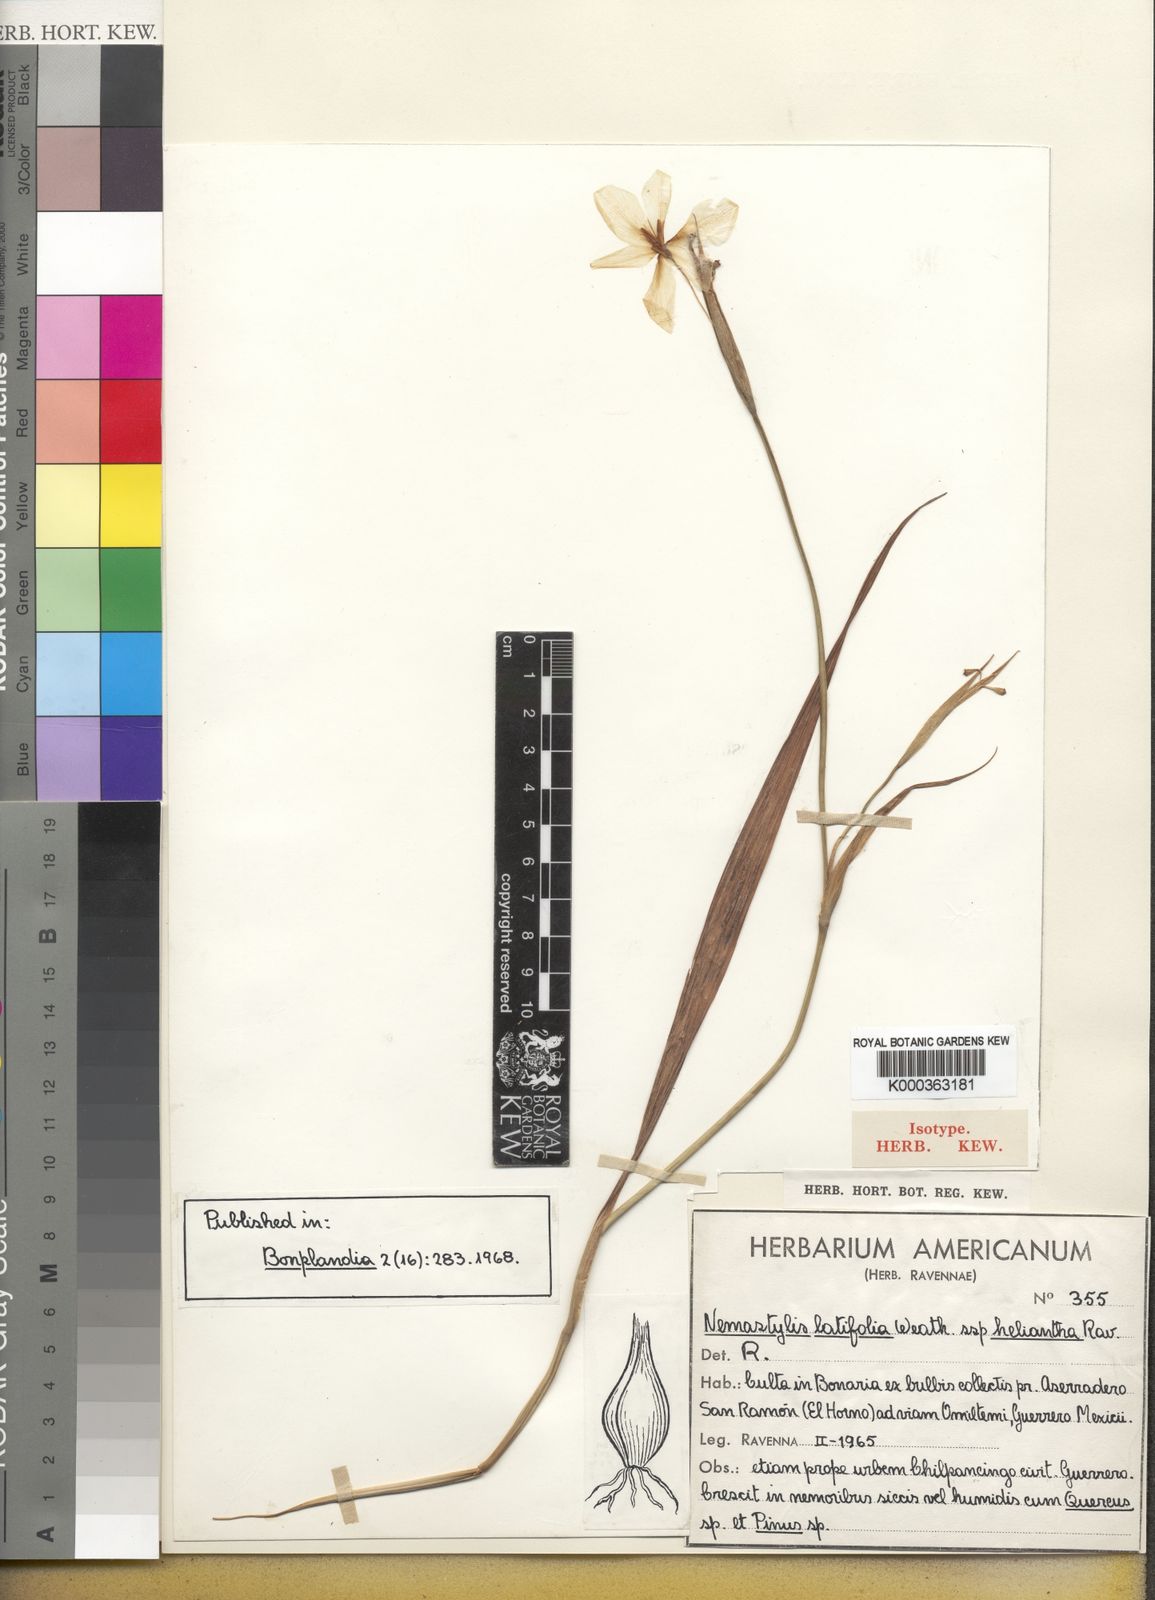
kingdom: Plantae
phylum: Tracheophyta
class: Liliopsida
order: Asparagales
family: Iridaceae
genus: Tigridia
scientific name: Tigridia heliantha
